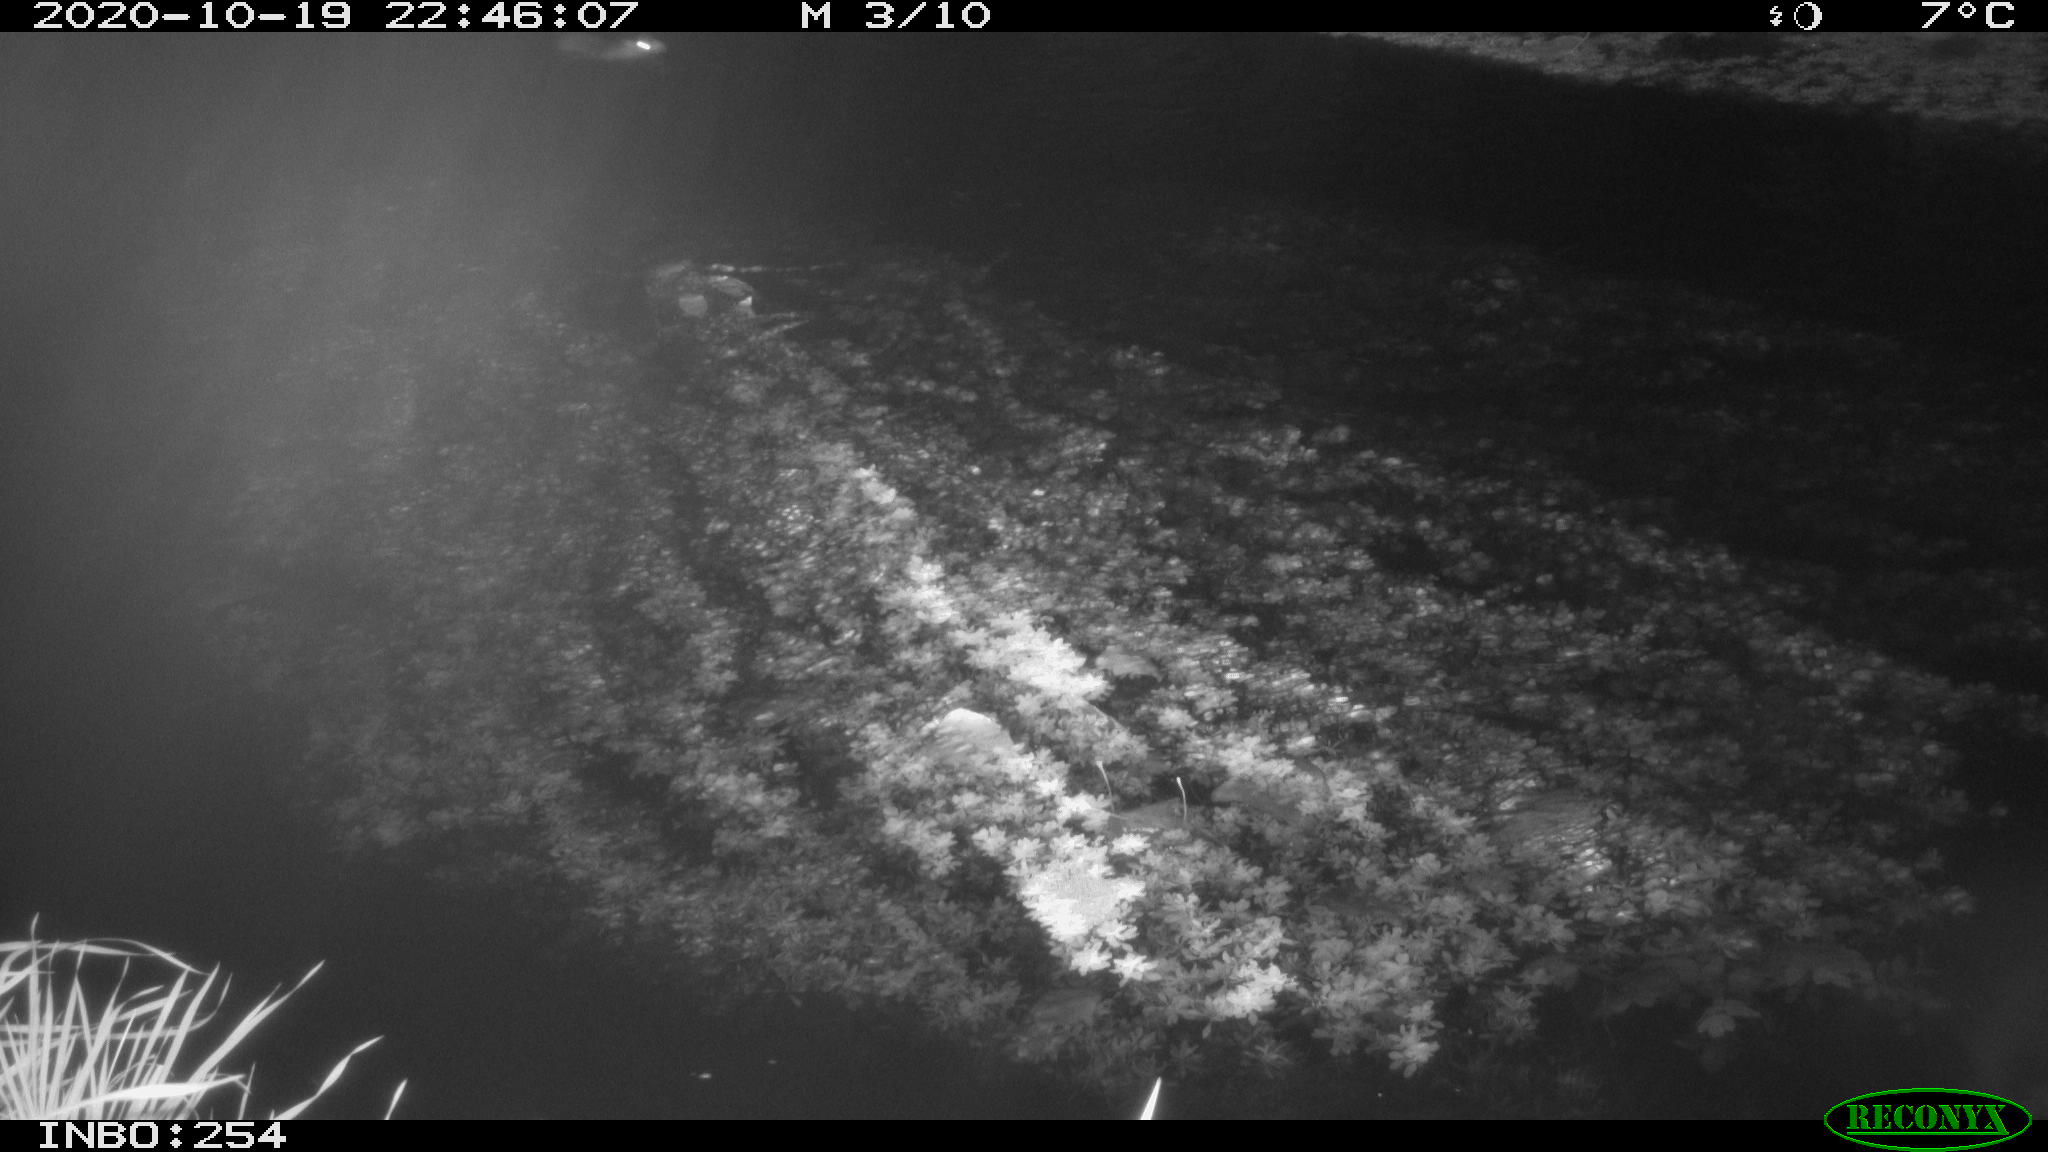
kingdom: Animalia
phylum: Chordata
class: Mammalia
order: Rodentia
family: Muridae
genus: Rattus
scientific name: Rattus norvegicus
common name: Brown rat
